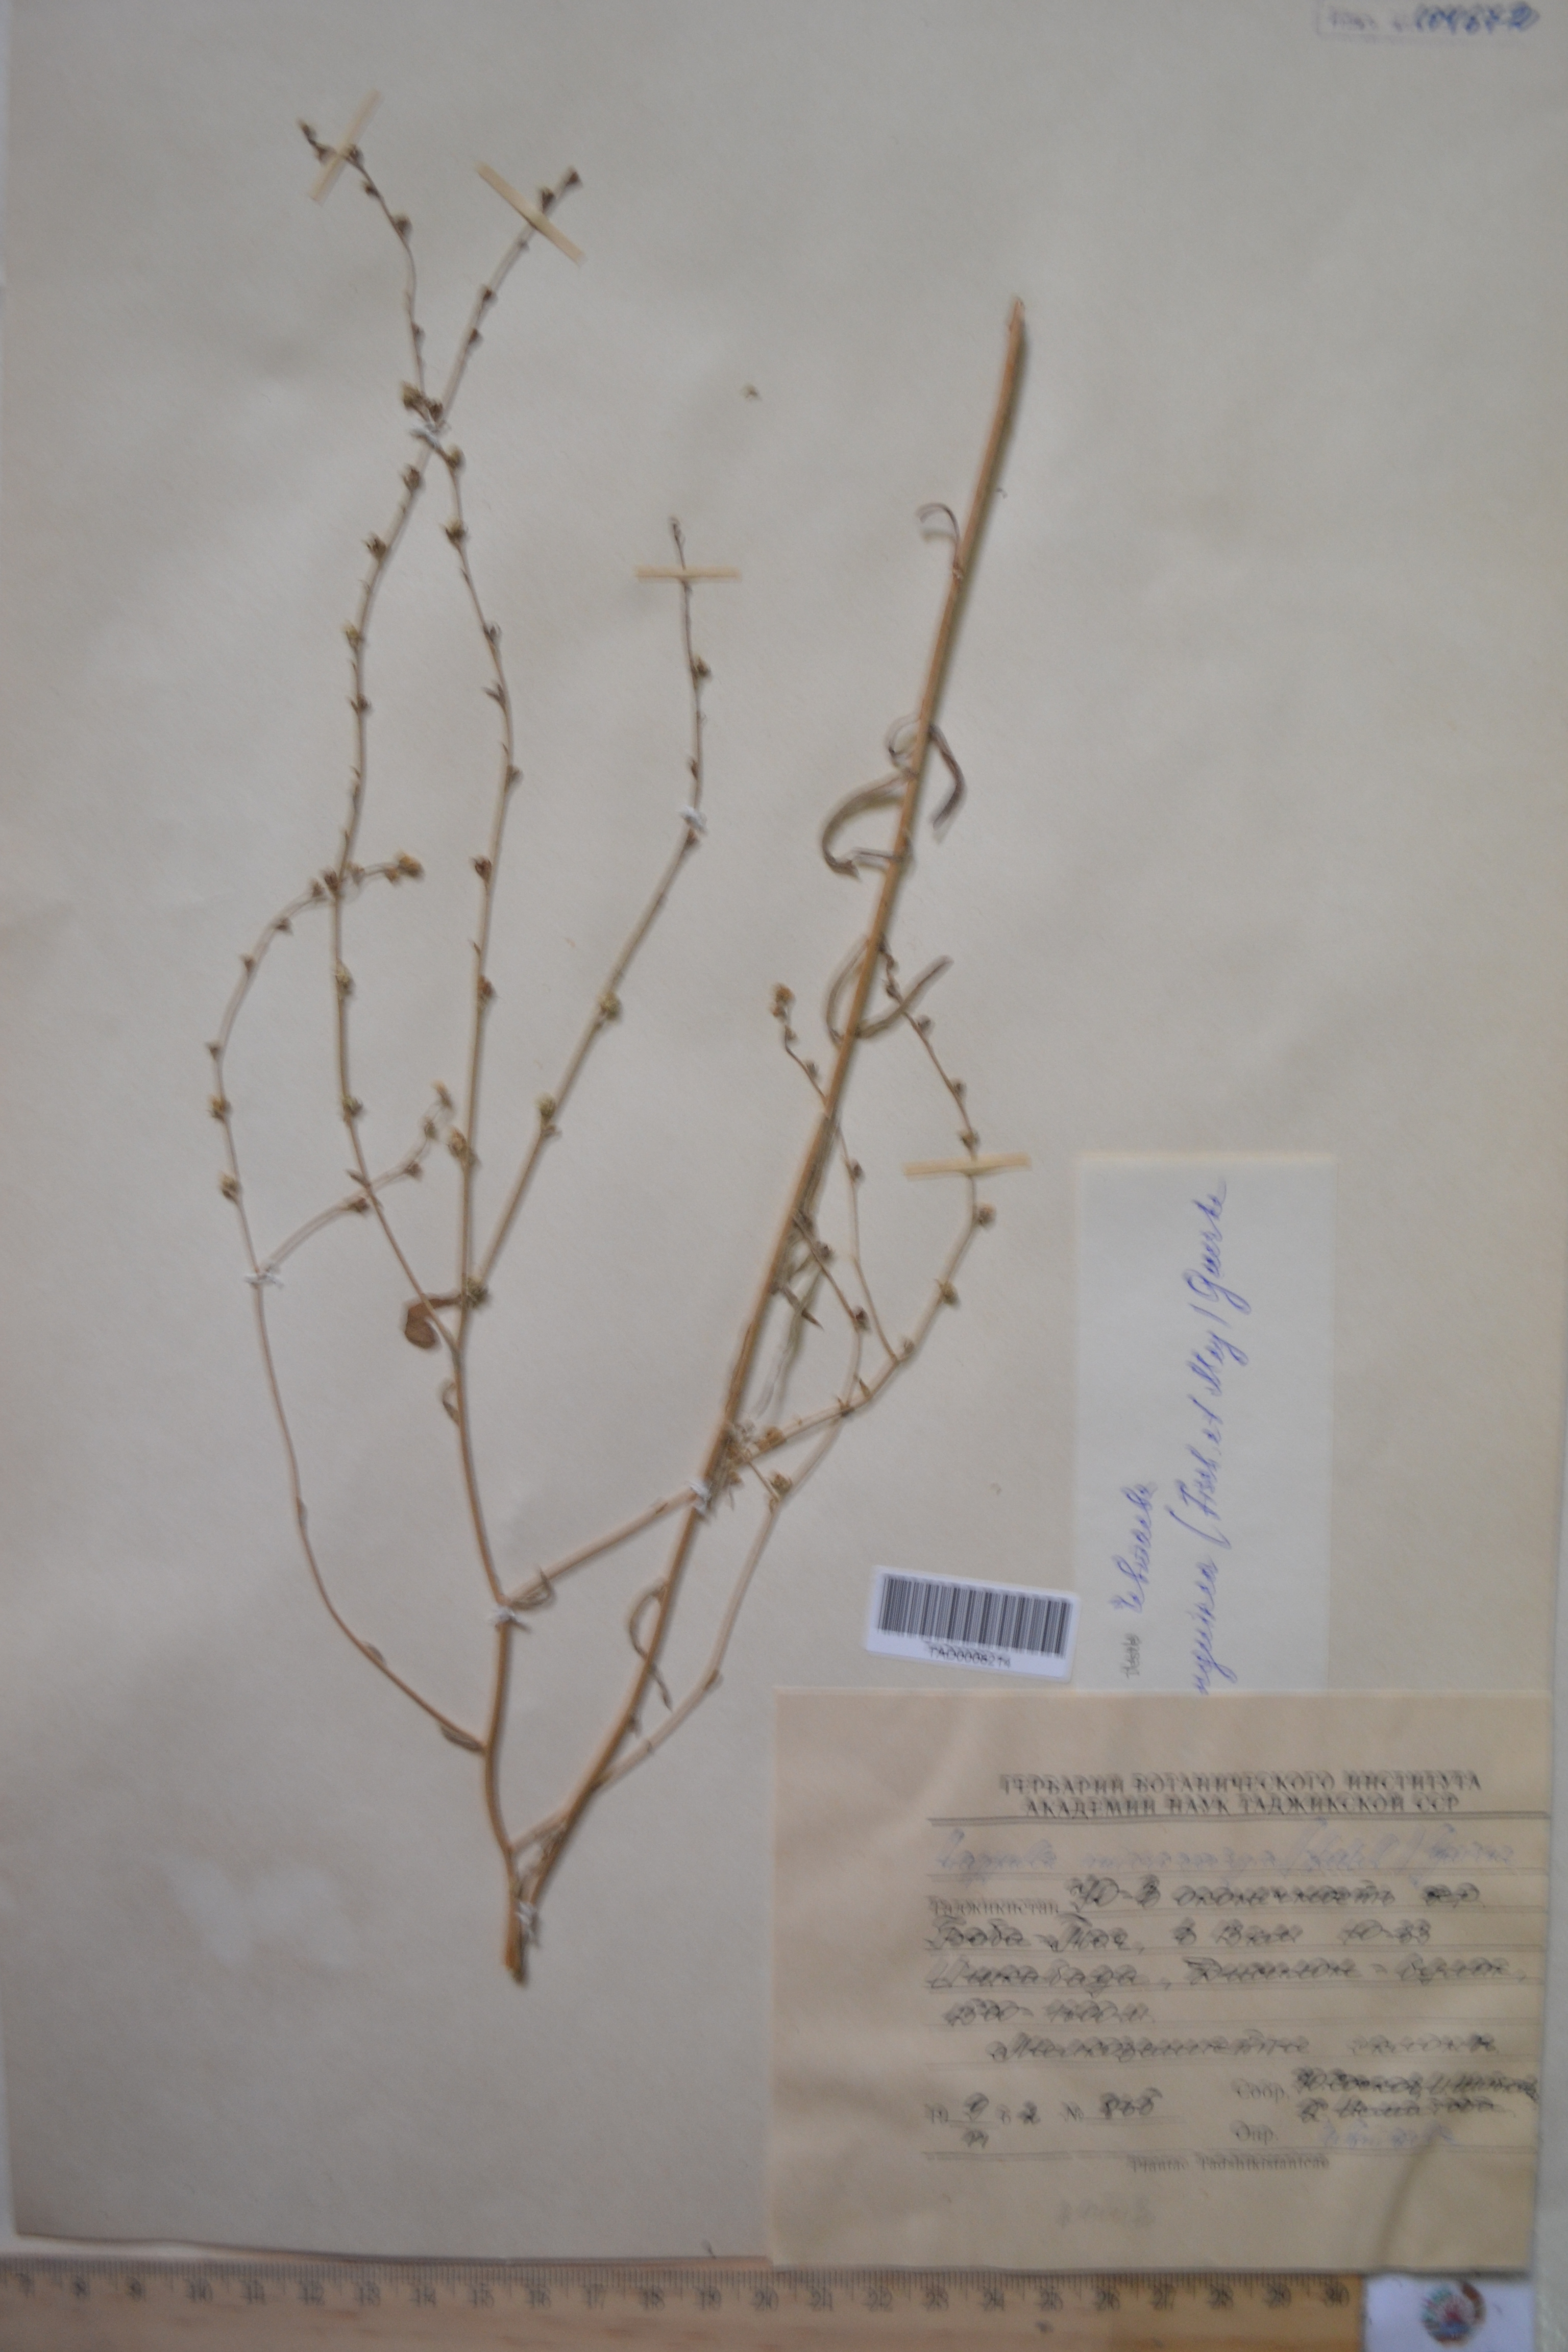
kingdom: Plantae
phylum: Tracheophyta
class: Magnoliopsida
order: Boraginales
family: Boraginaceae
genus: Lappula
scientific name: Lappula brachycentra
